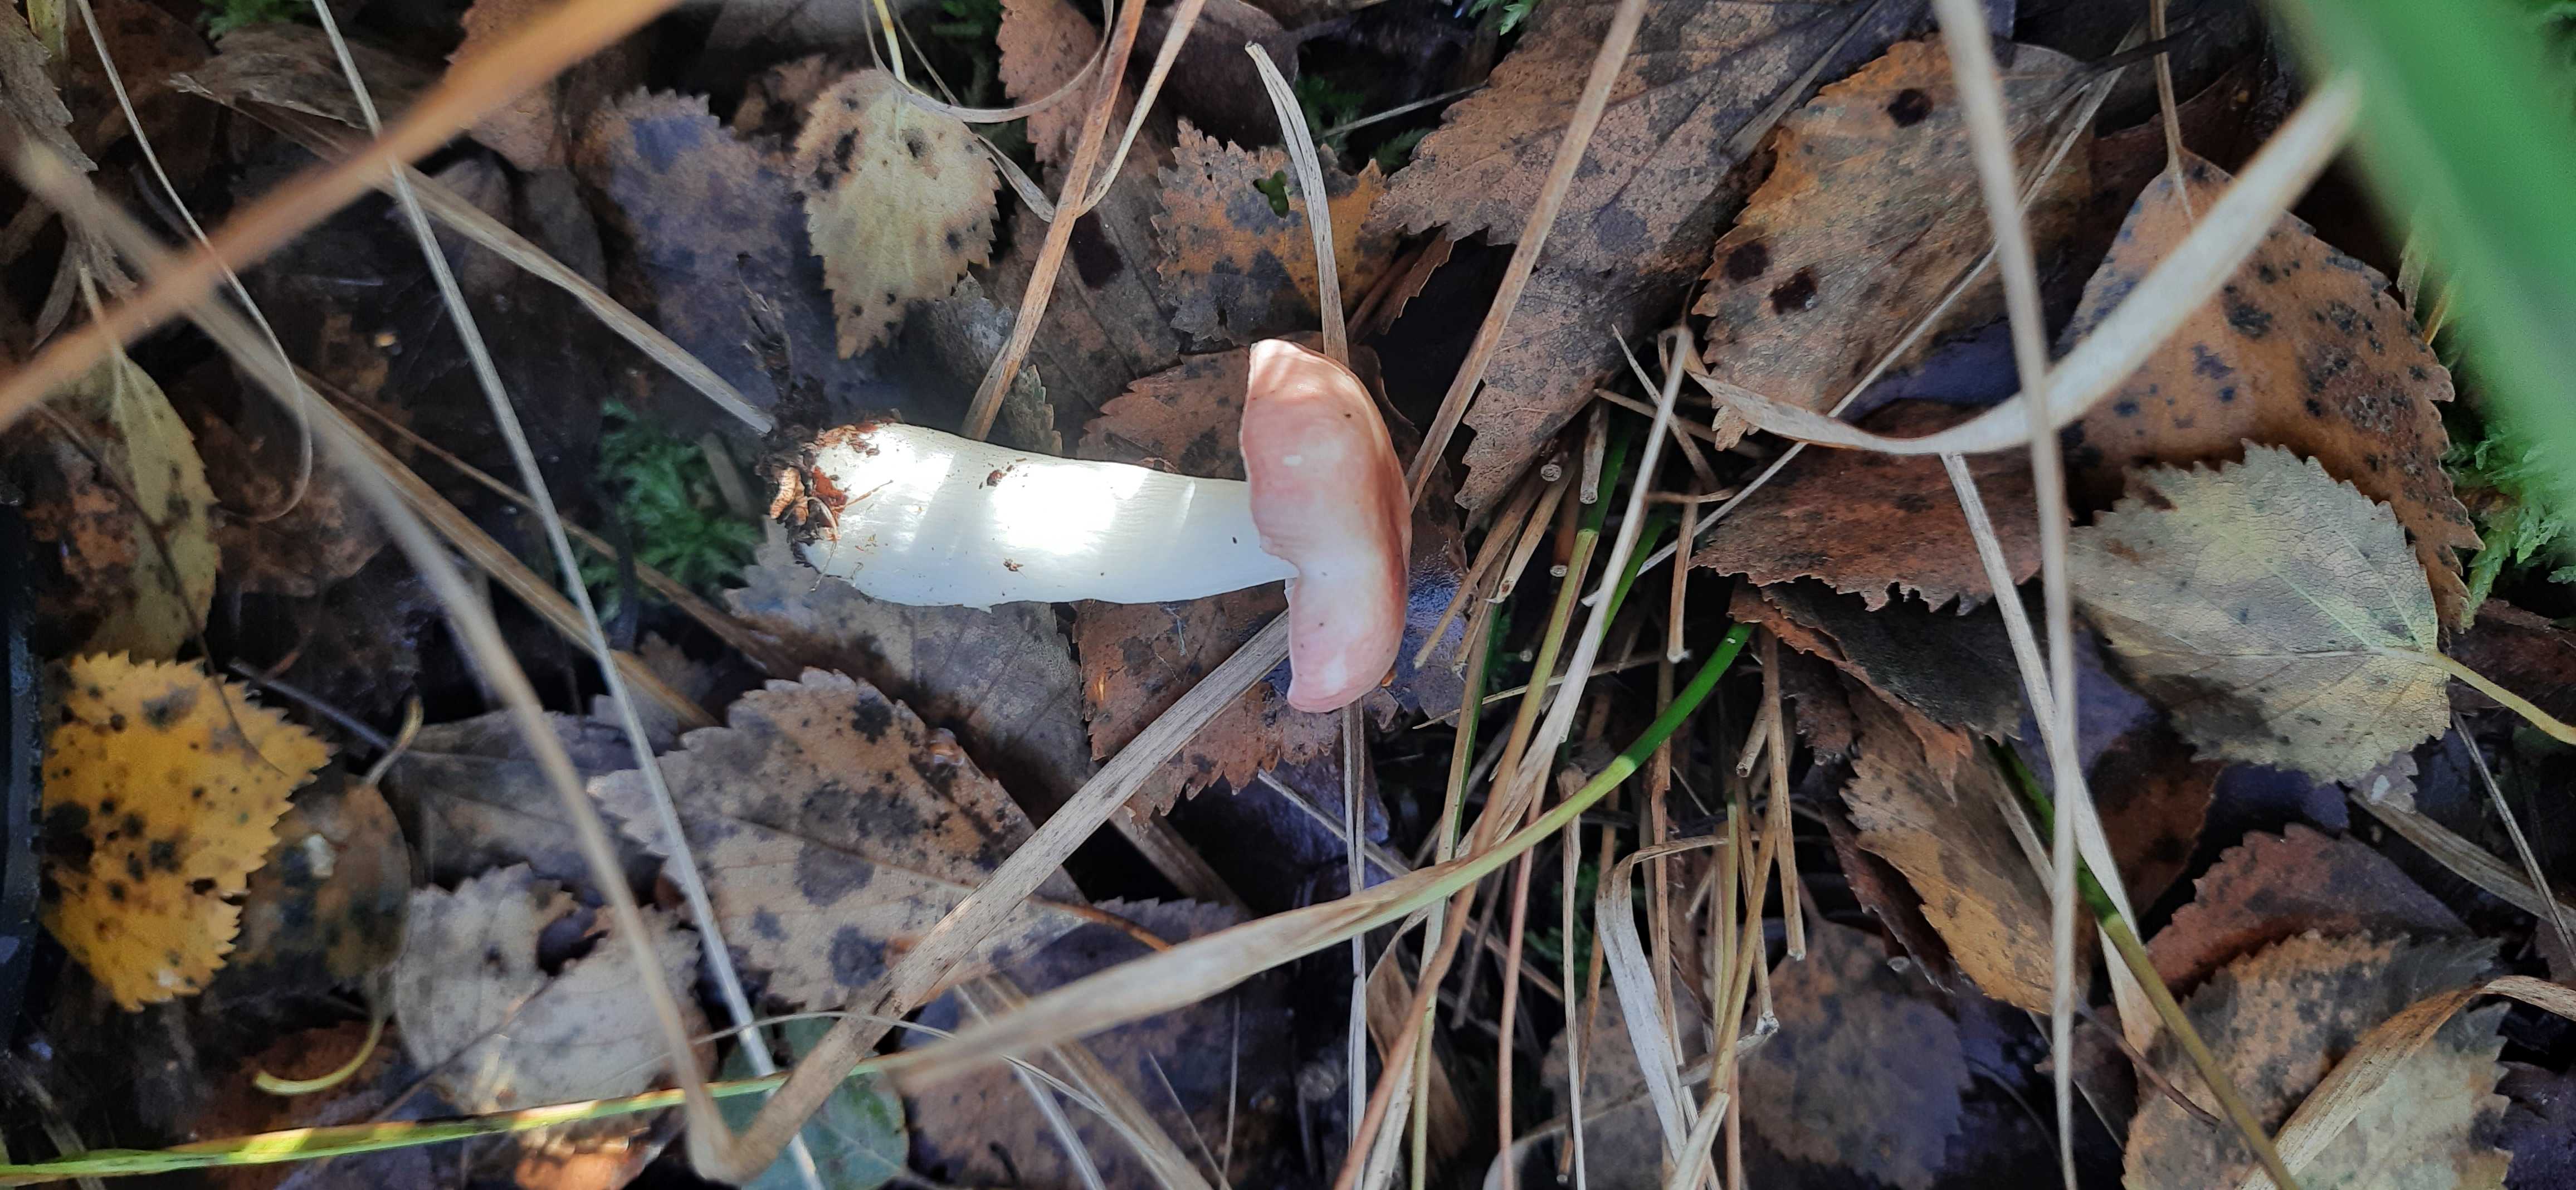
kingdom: Fungi
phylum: Basidiomycota
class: Agaricomycetes
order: Russulales
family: Russulaceae
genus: Russula
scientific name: Russula betularum
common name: bleg gift-skørhat
